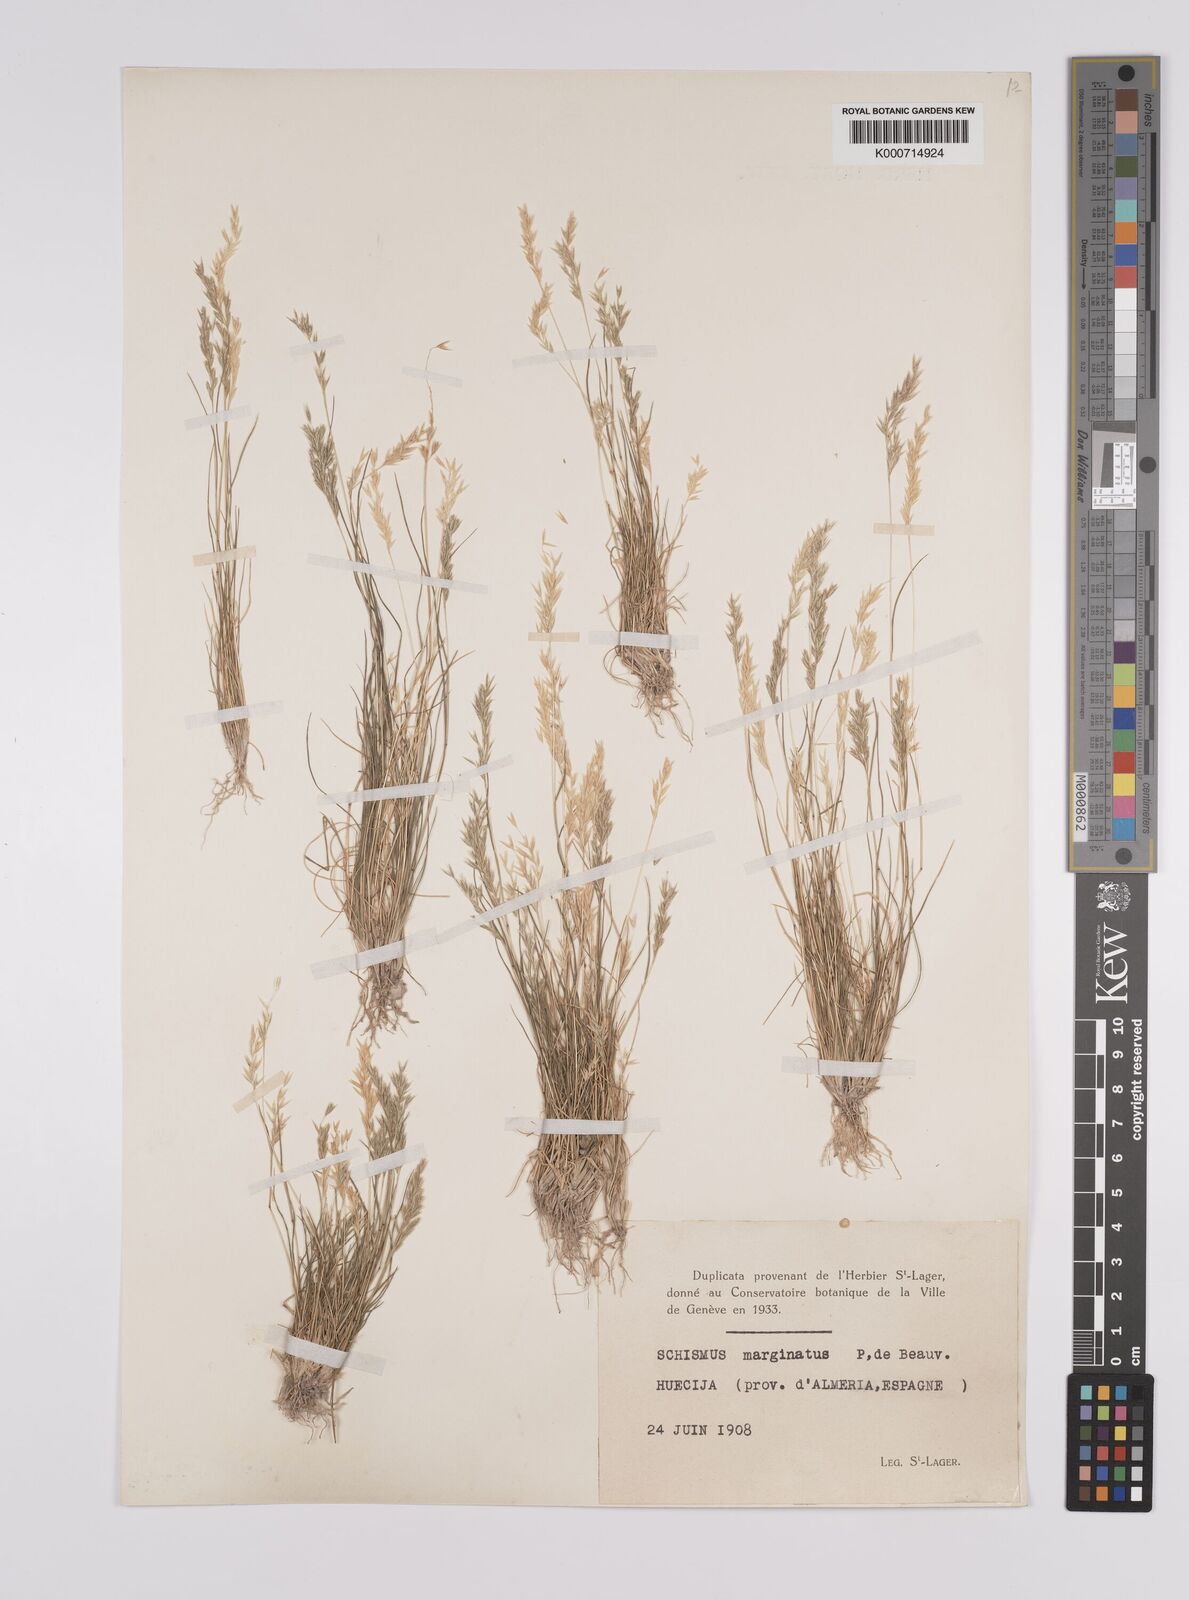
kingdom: Plantae
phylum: Tracheophyta
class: Liliopsida
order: Poales
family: Poaceae
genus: Schismus
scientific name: Schismus barbatus
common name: Kelch-grass
